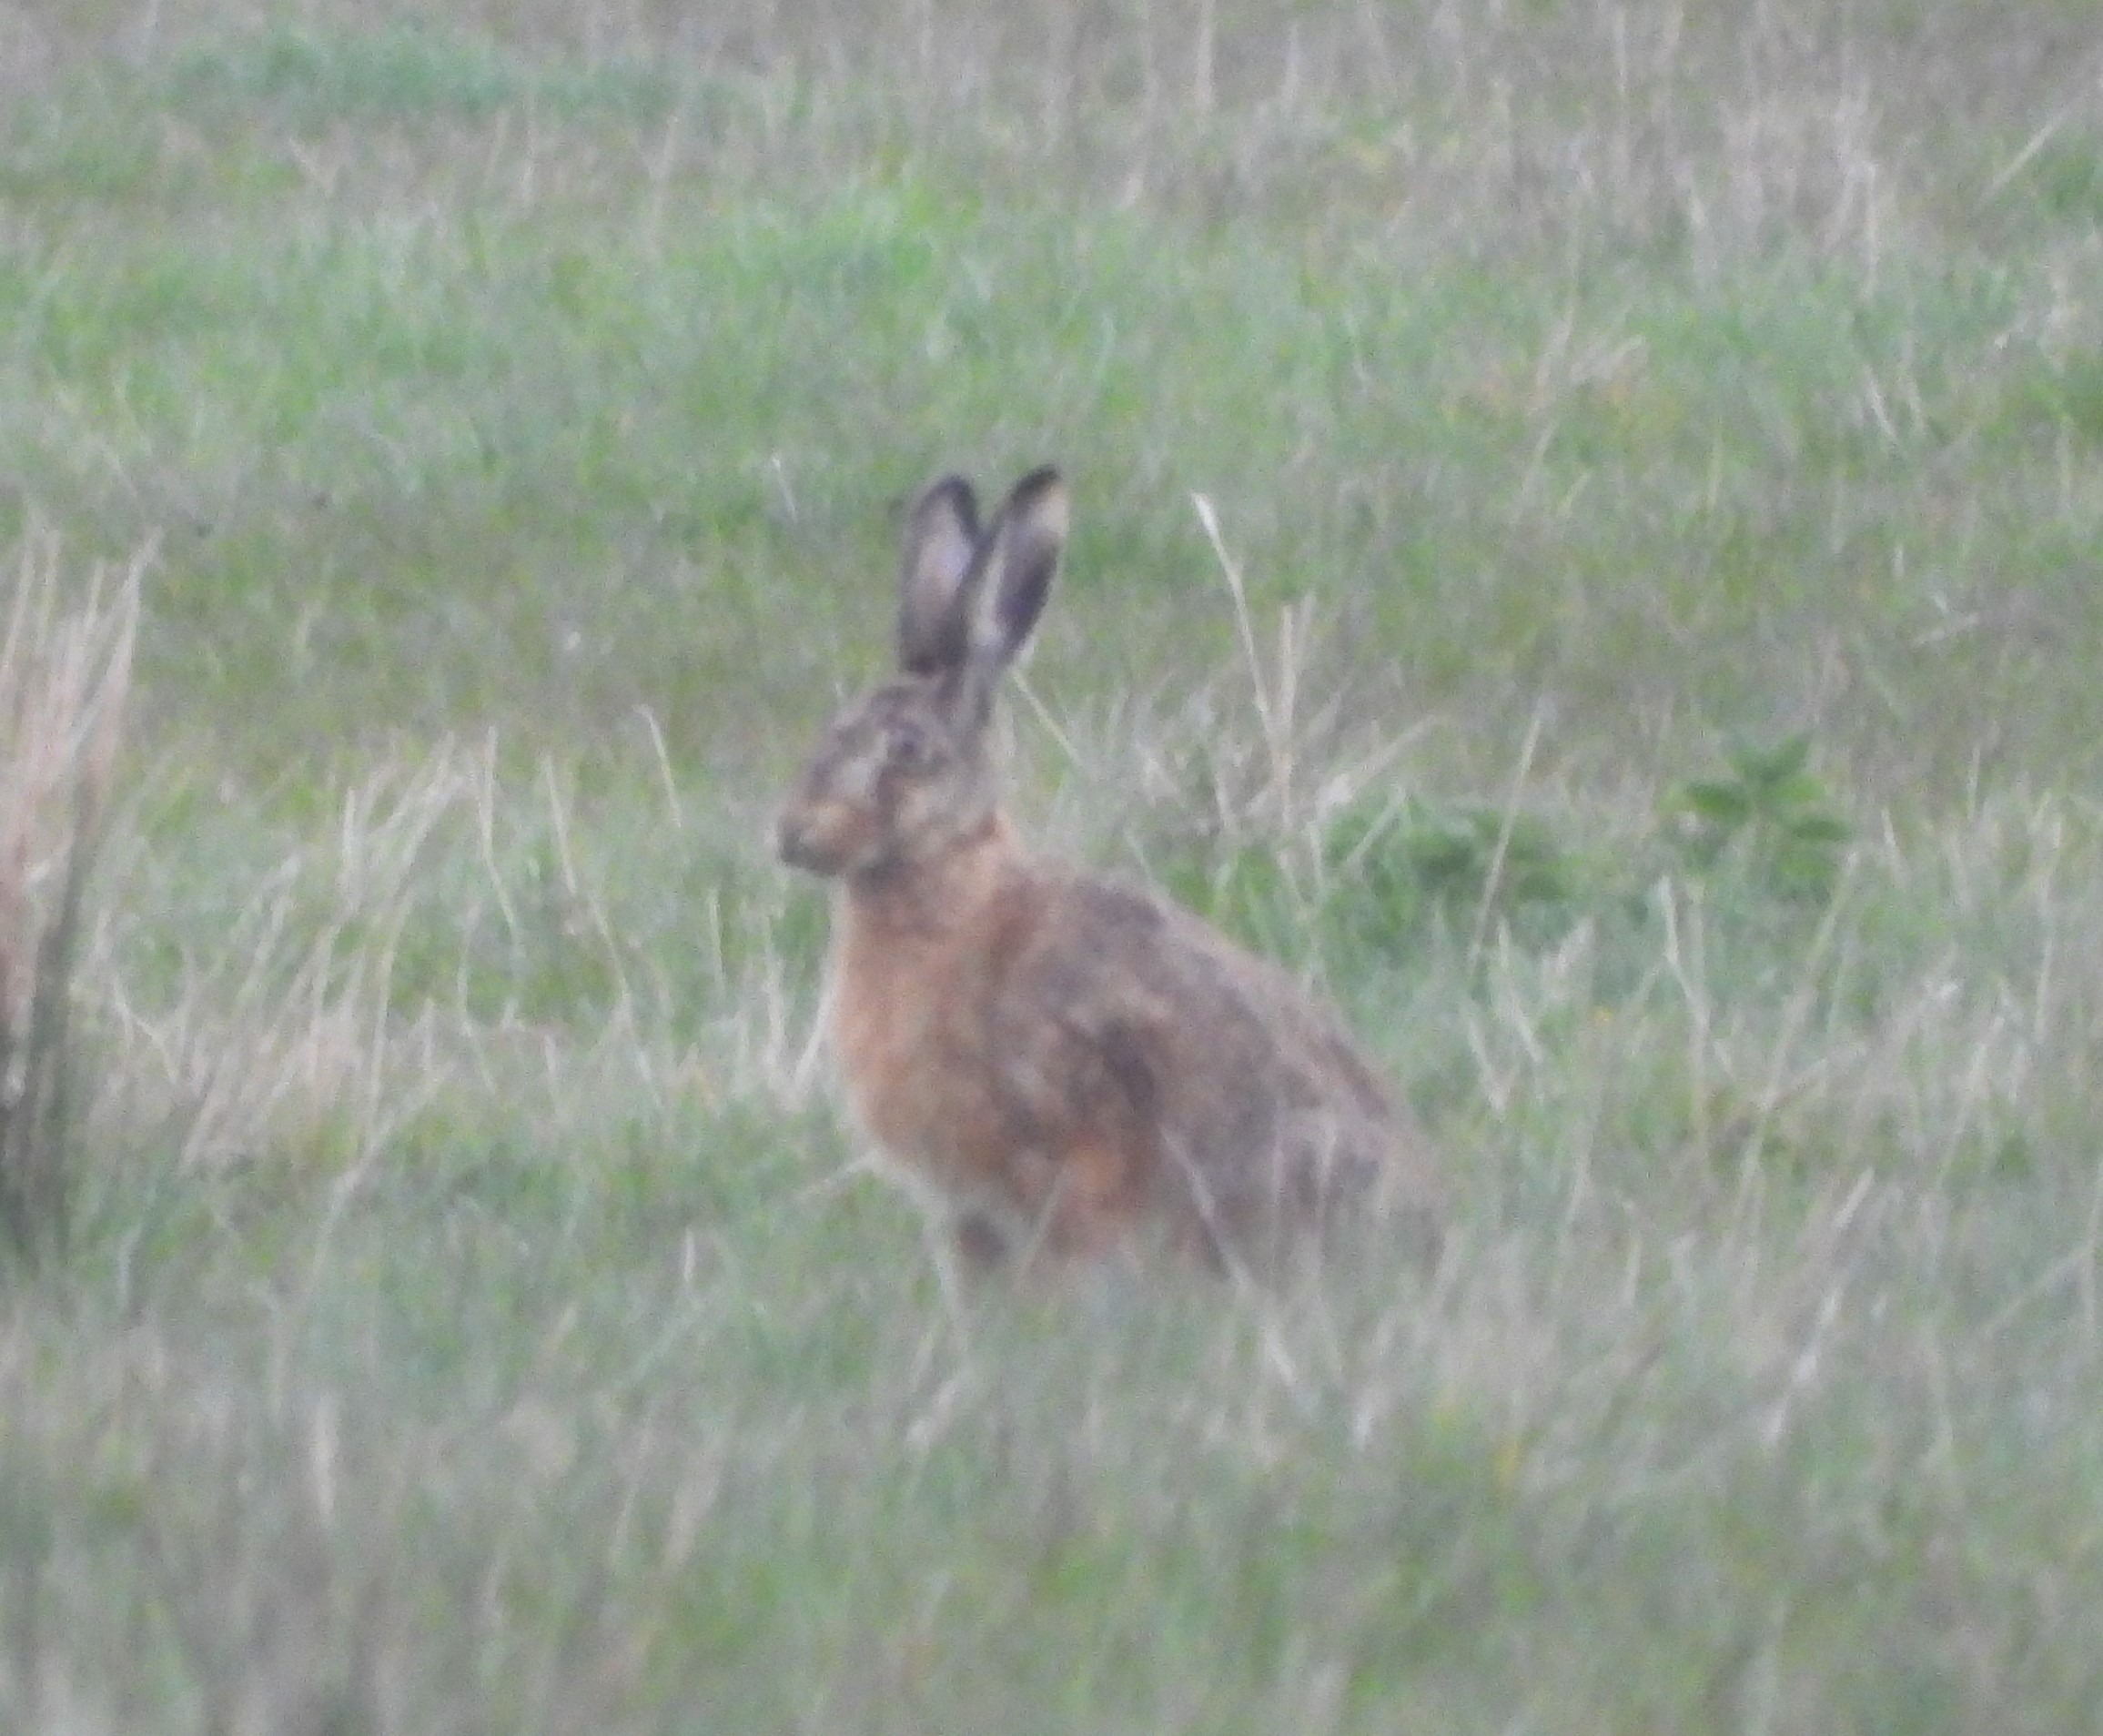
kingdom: Animalia
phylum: Chordata
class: Mammalia
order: Lagomorpha
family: Leporidae
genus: Lepus
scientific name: Lepus europaeus
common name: Hare
